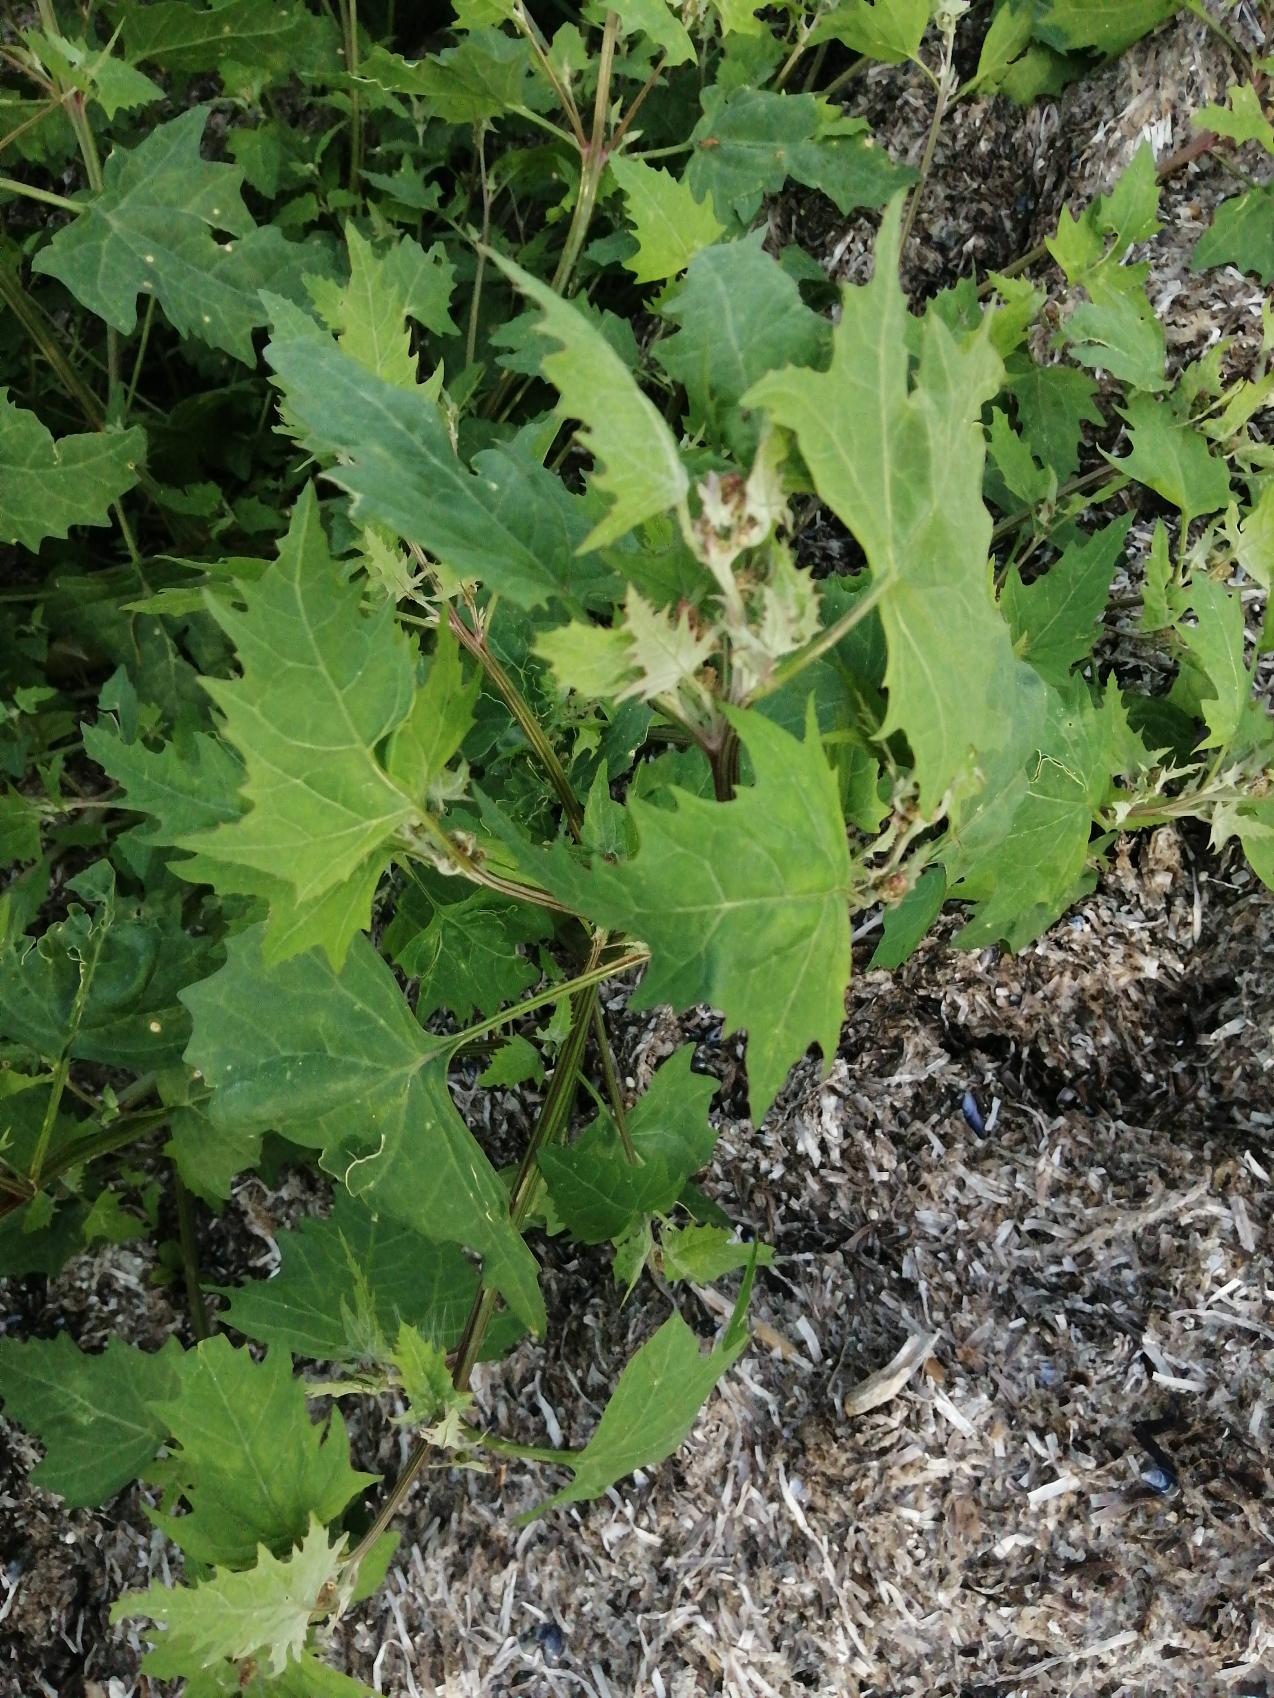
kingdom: Plantae
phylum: Tracheophyta
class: Magnoliopsida
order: Caryophyllales
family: Amaranthaceae
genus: Atriplex
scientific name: Atriplex calotheca
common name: Skønbægret mælde
